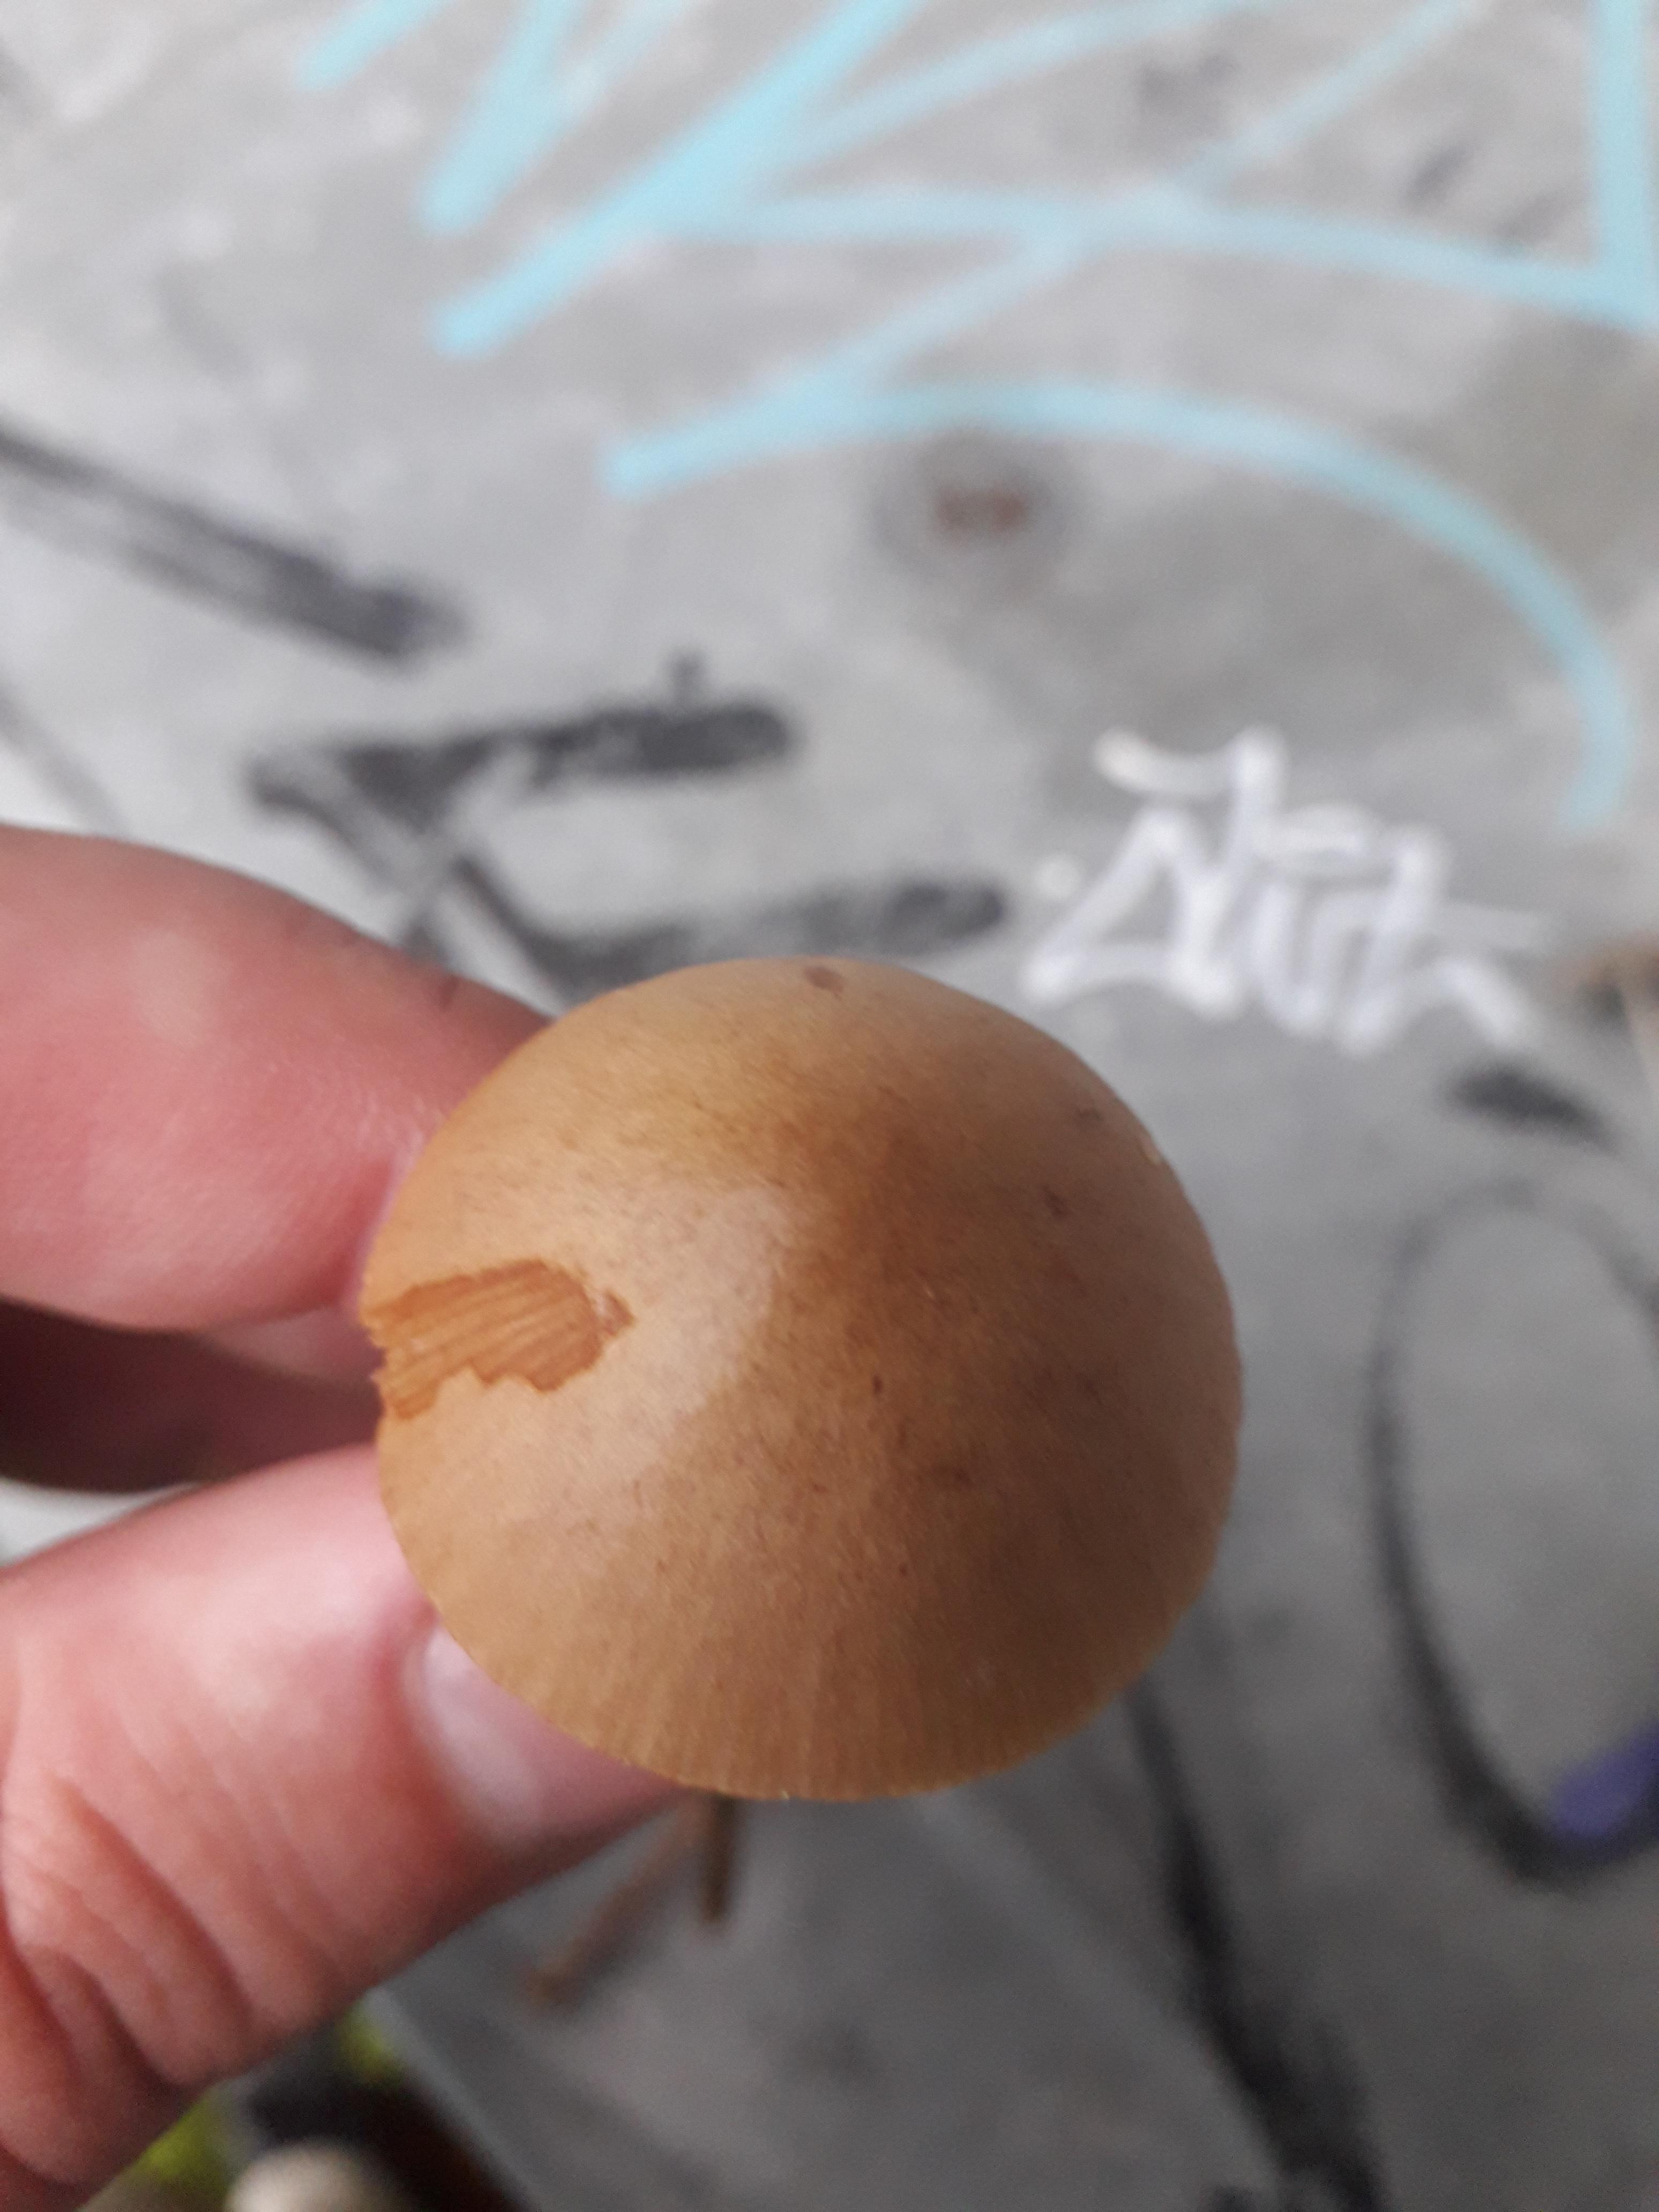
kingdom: Fungi
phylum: Basidiomycota
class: Agaricomycetes
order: Agaricales
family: Bolbitiaceae
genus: Conocybe
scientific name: Conocybe
